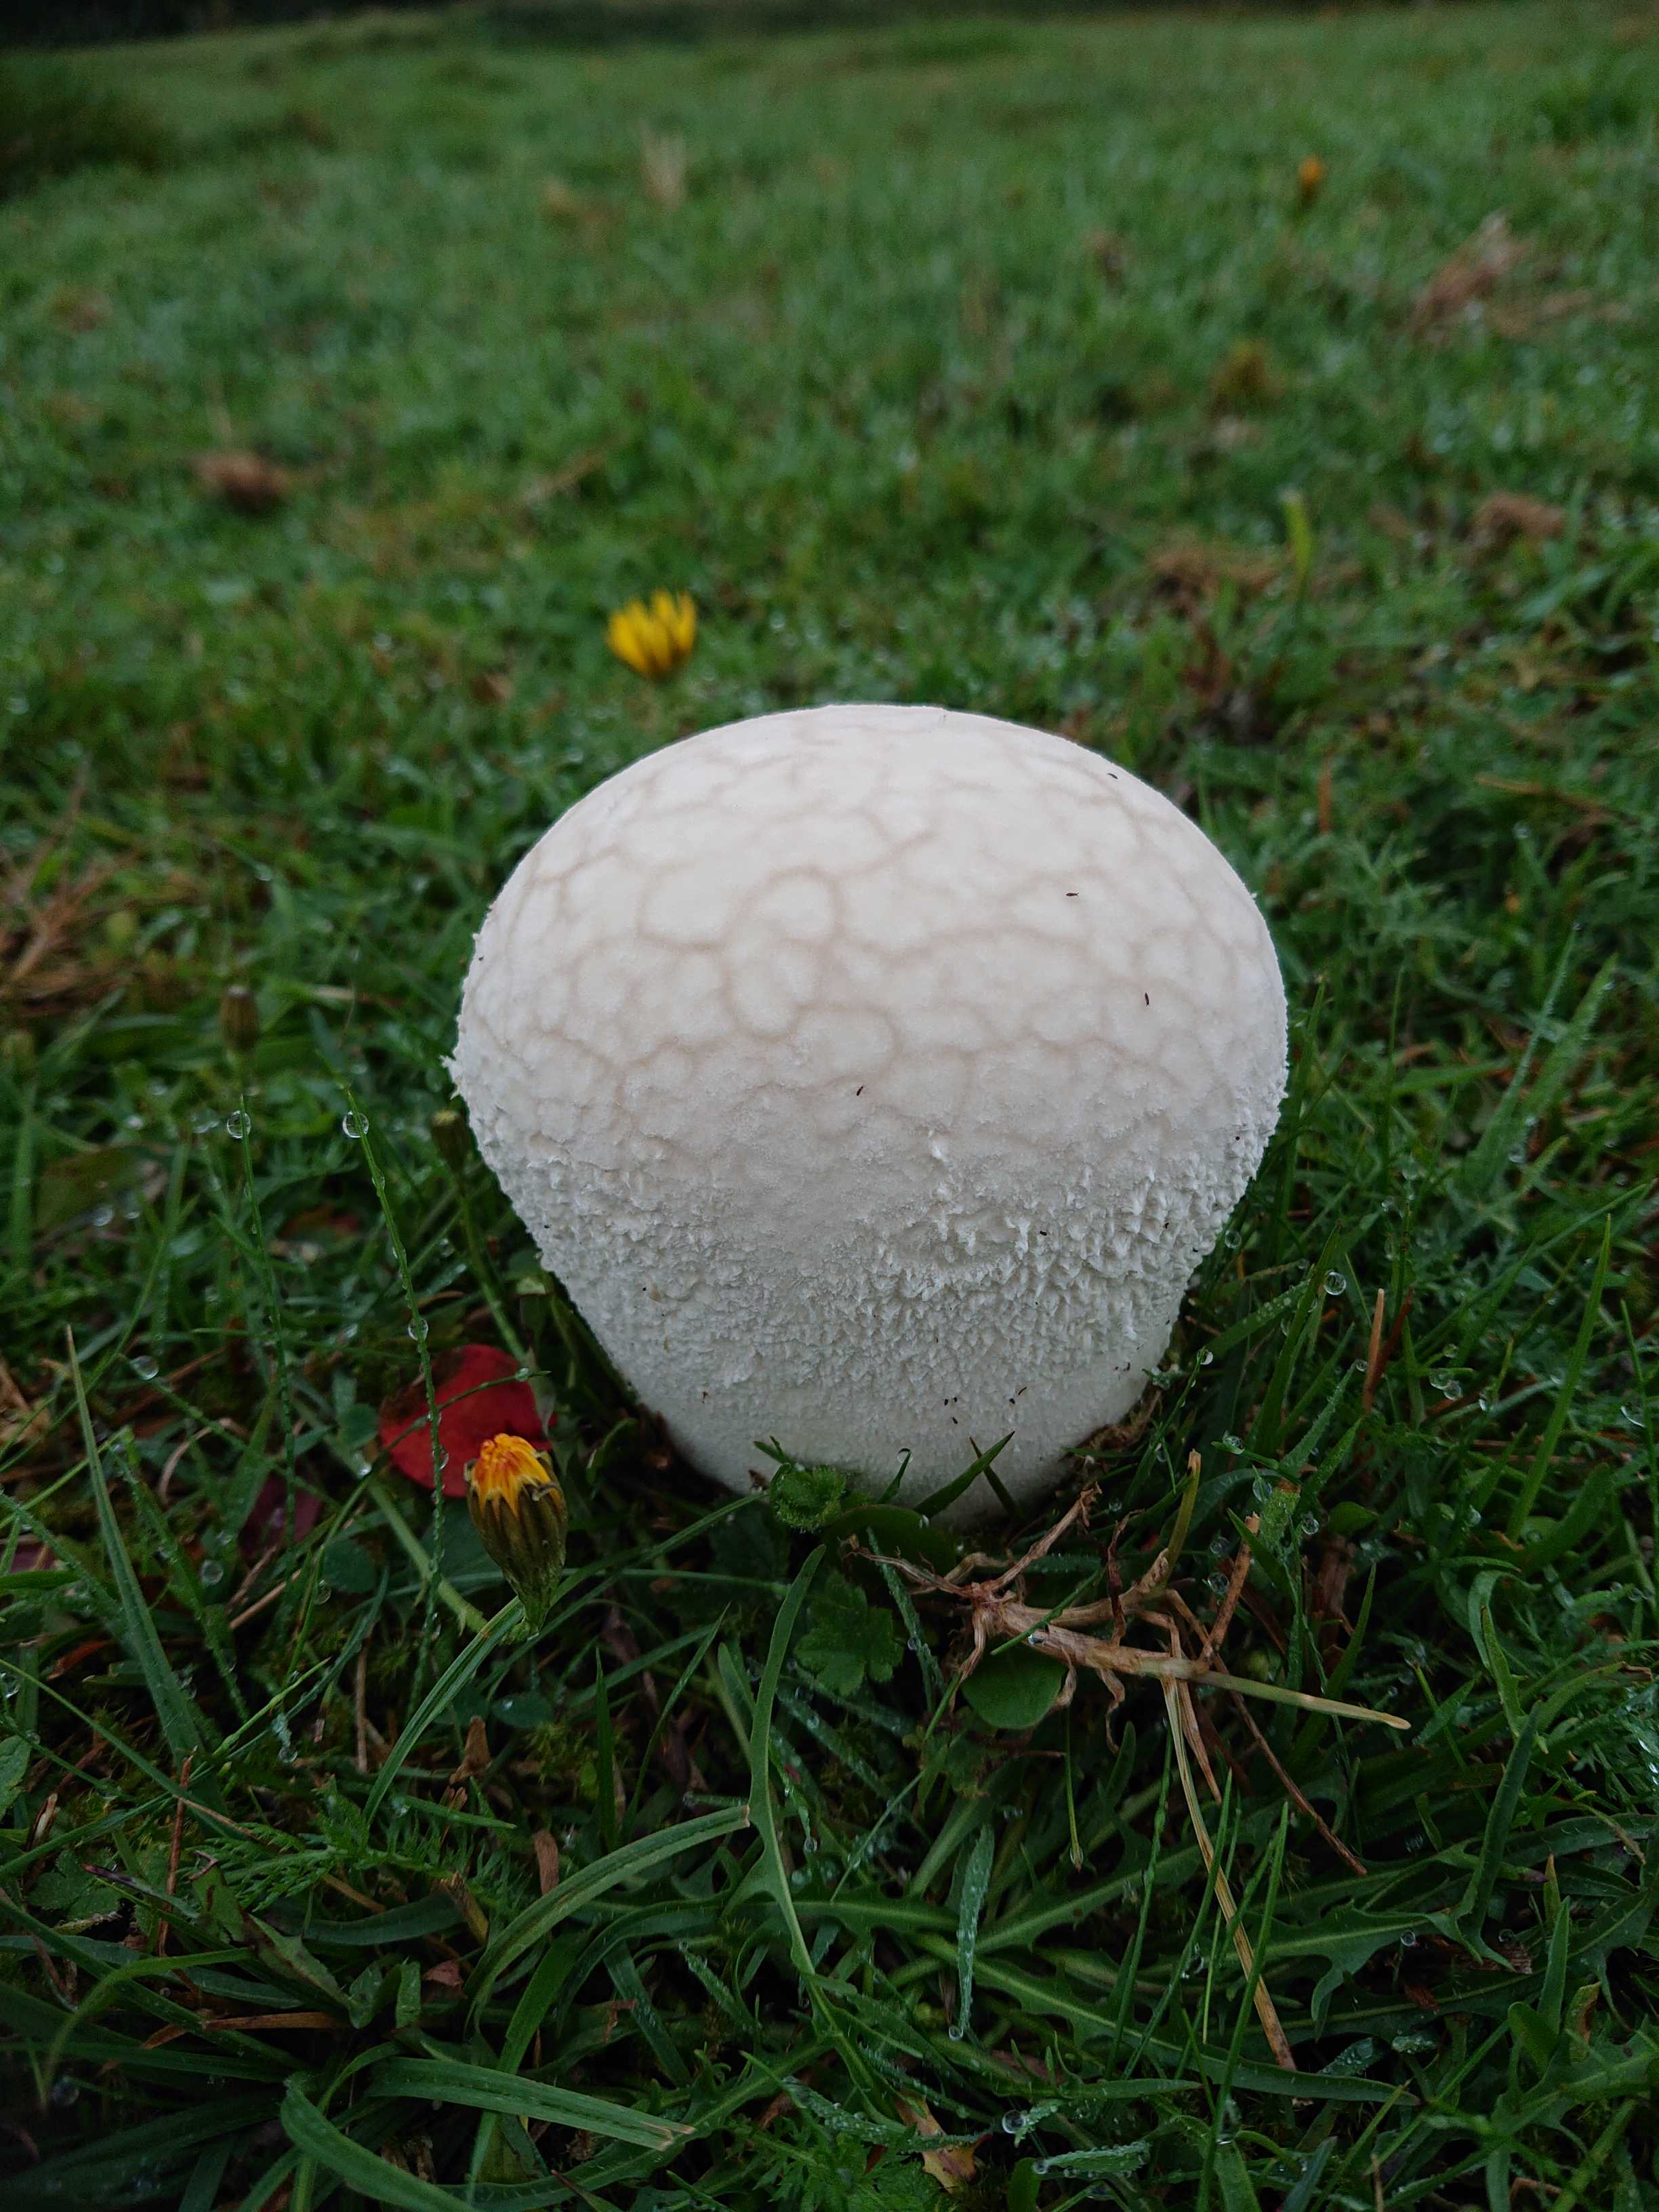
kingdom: Fungi
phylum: Basidiomycota
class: Agaricomycetes
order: Agaricales
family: Lycoperdaceae
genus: Bovistella
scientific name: Bovistella utriformis
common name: skællet støvbold
